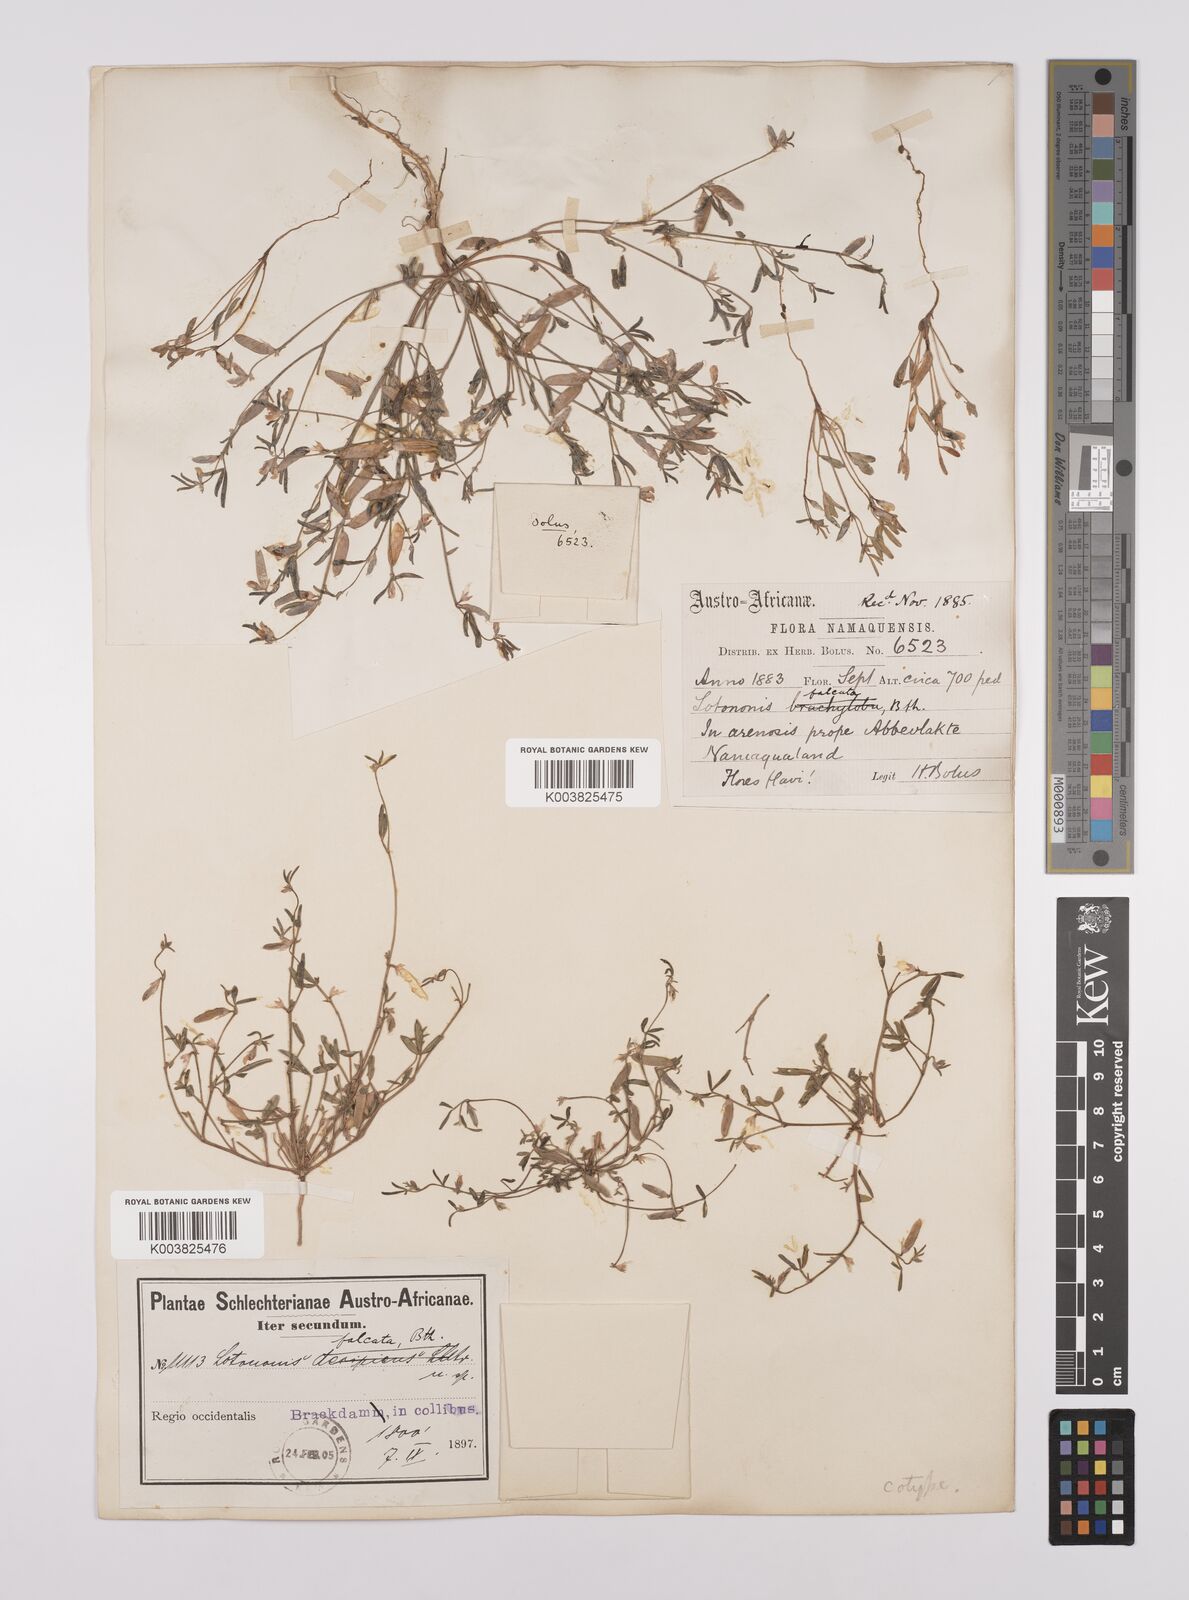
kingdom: Plantae
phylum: Tracheophyta
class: Magnoliopsida
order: Fabales
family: Fabaceae
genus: Lotononis
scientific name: Lotononis falcata
